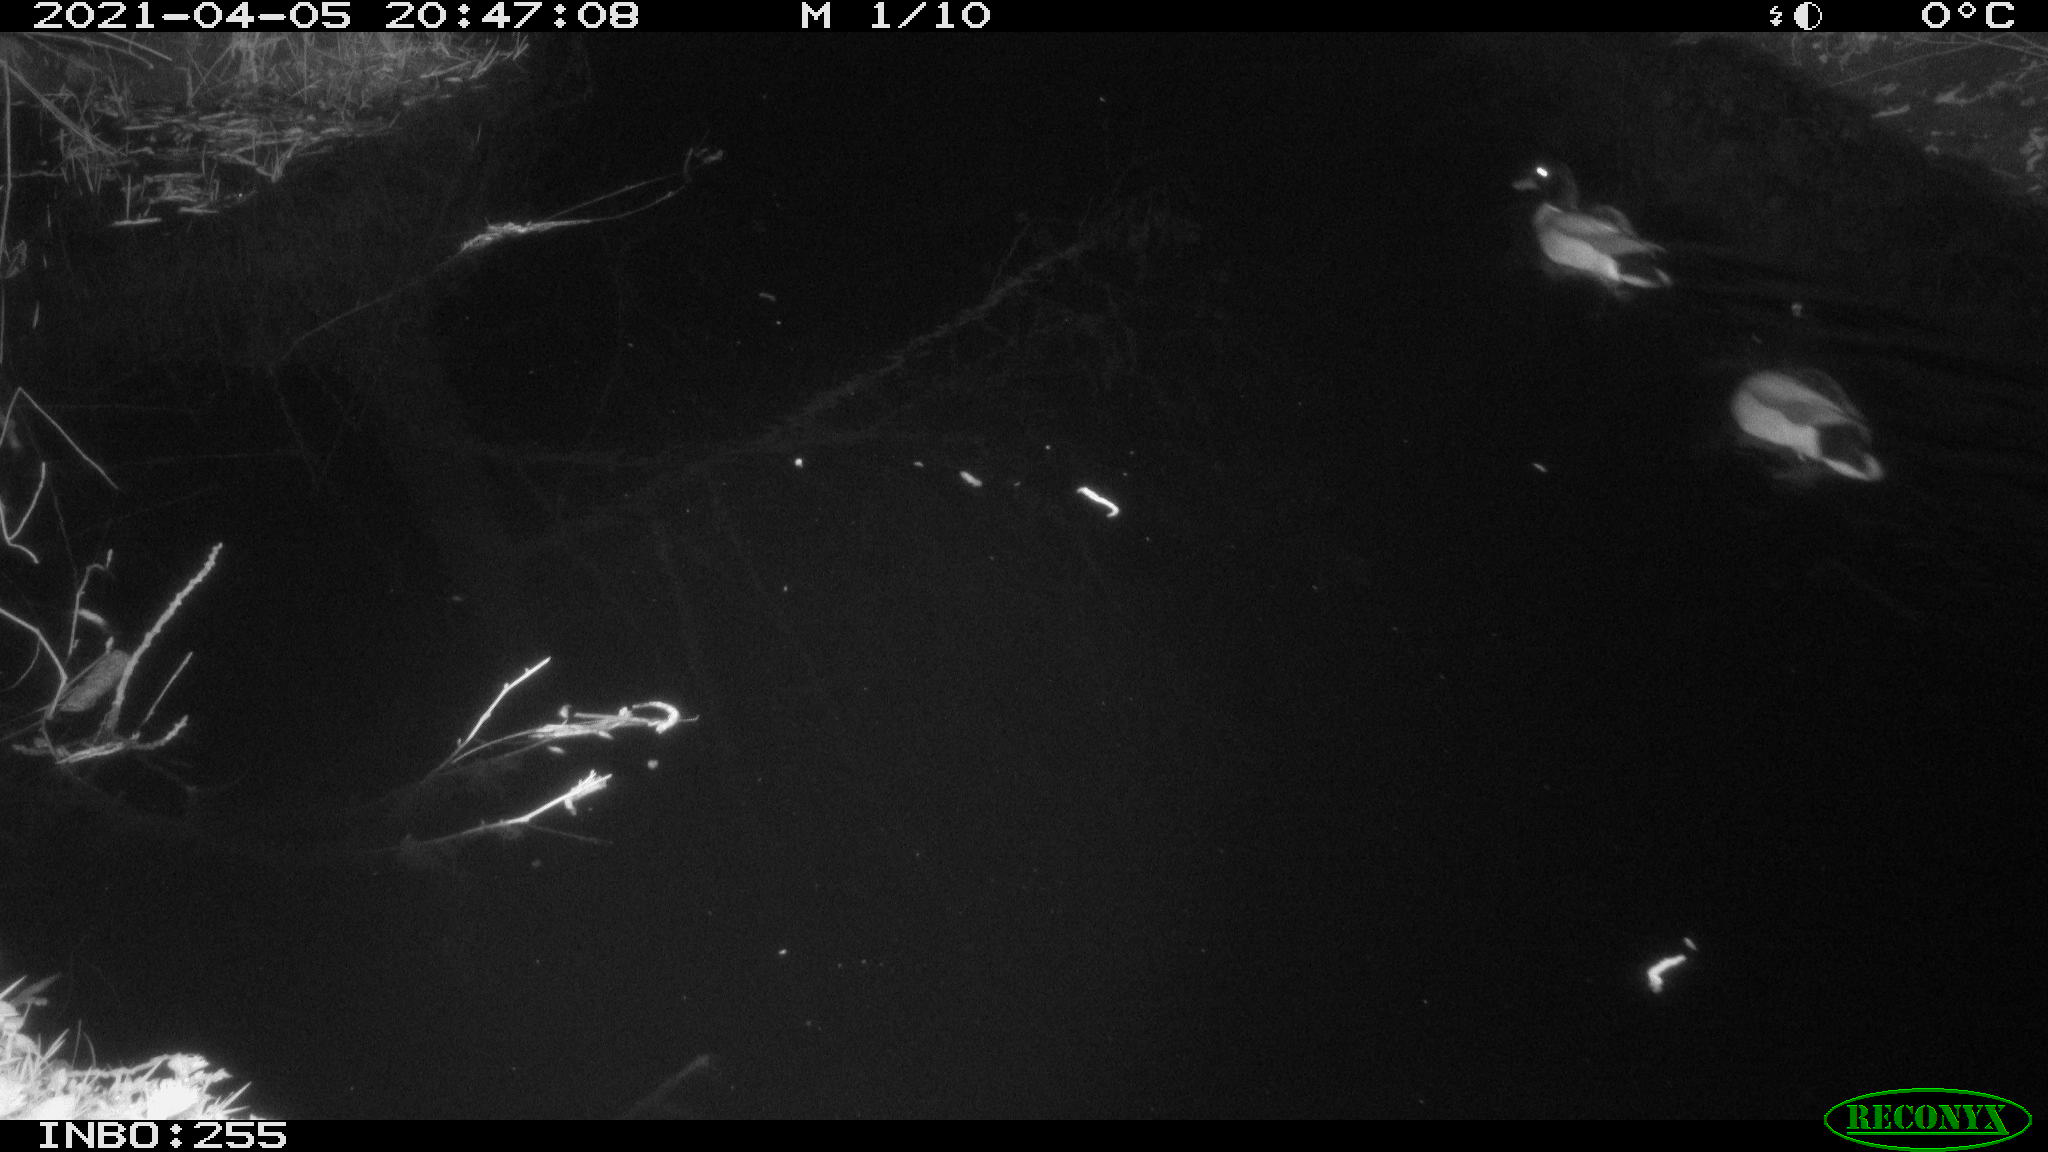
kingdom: Animalia
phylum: Chordata
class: Aves
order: Anseriformes
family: Anatidae
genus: Anas
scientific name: Anas platyrhynchos
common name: Mallard
